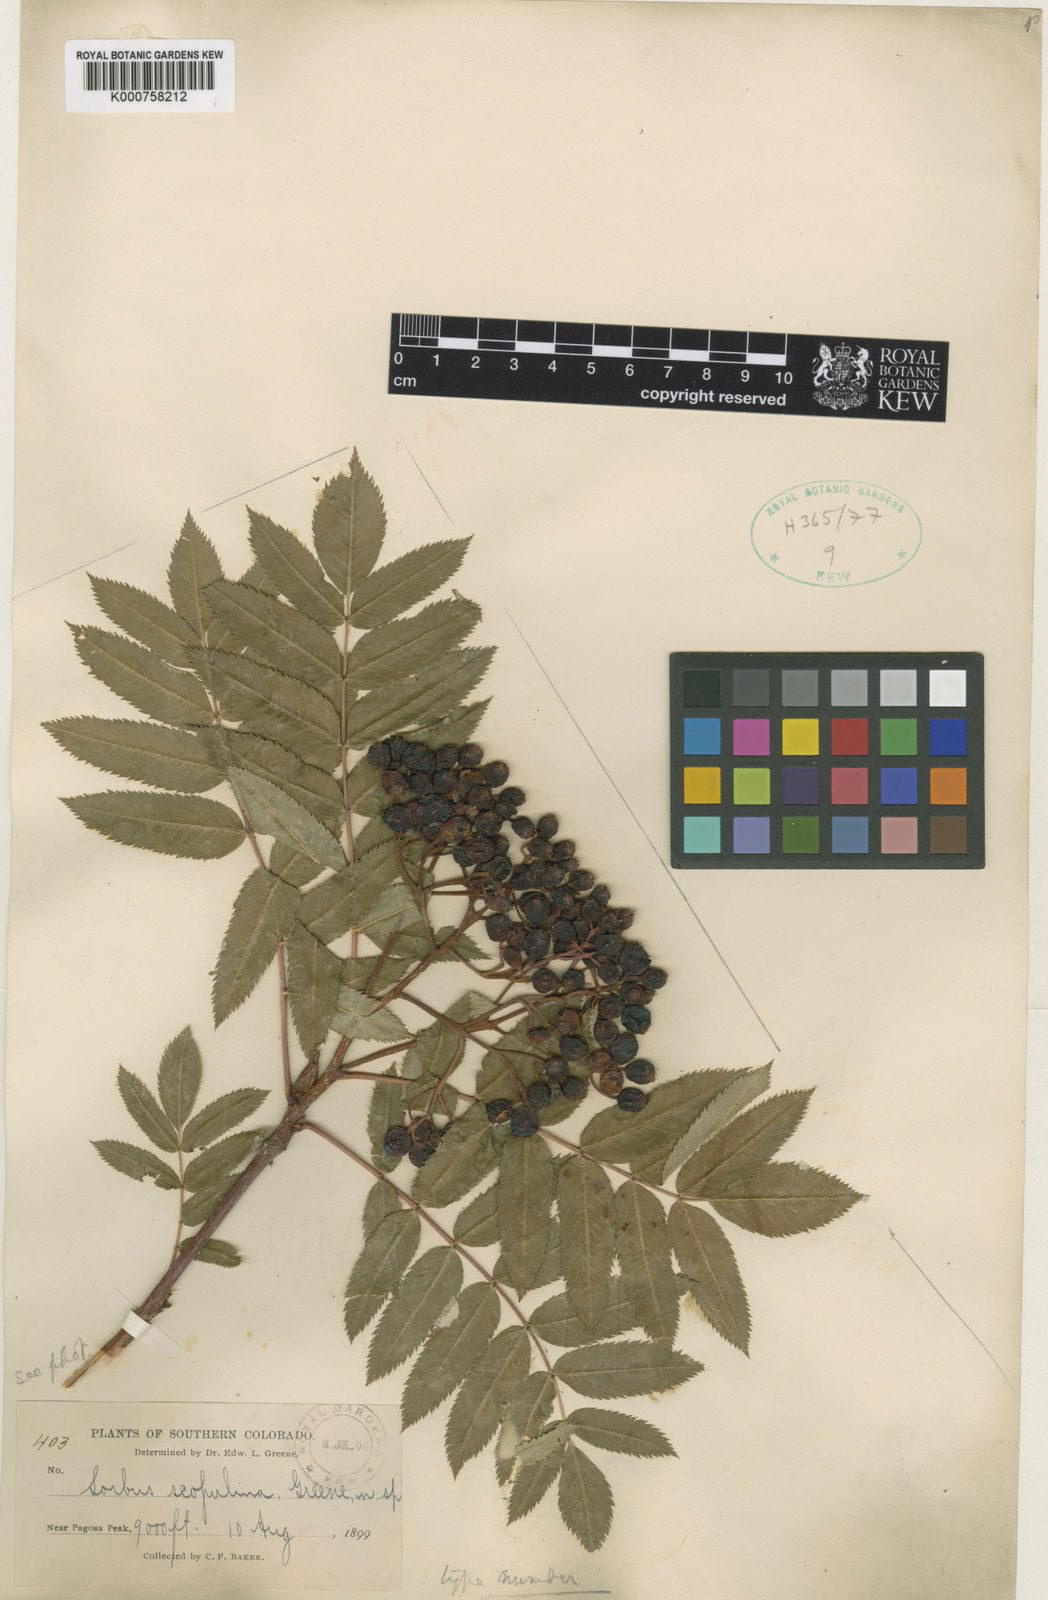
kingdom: Plantae
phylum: Tracheophyta
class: Magnoliopsida
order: Rosales
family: Rosaceae
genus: Sorbus
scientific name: Sorbus scopulina
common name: Greene's mountain-ash
